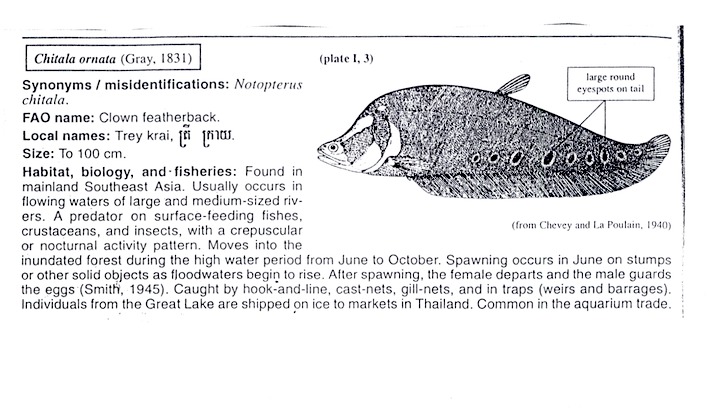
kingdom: Animalia
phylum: Chordata
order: Osteoglossiformes
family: Notopteridae
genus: Chitala
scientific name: Chitala ornata
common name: Clown knifefish
